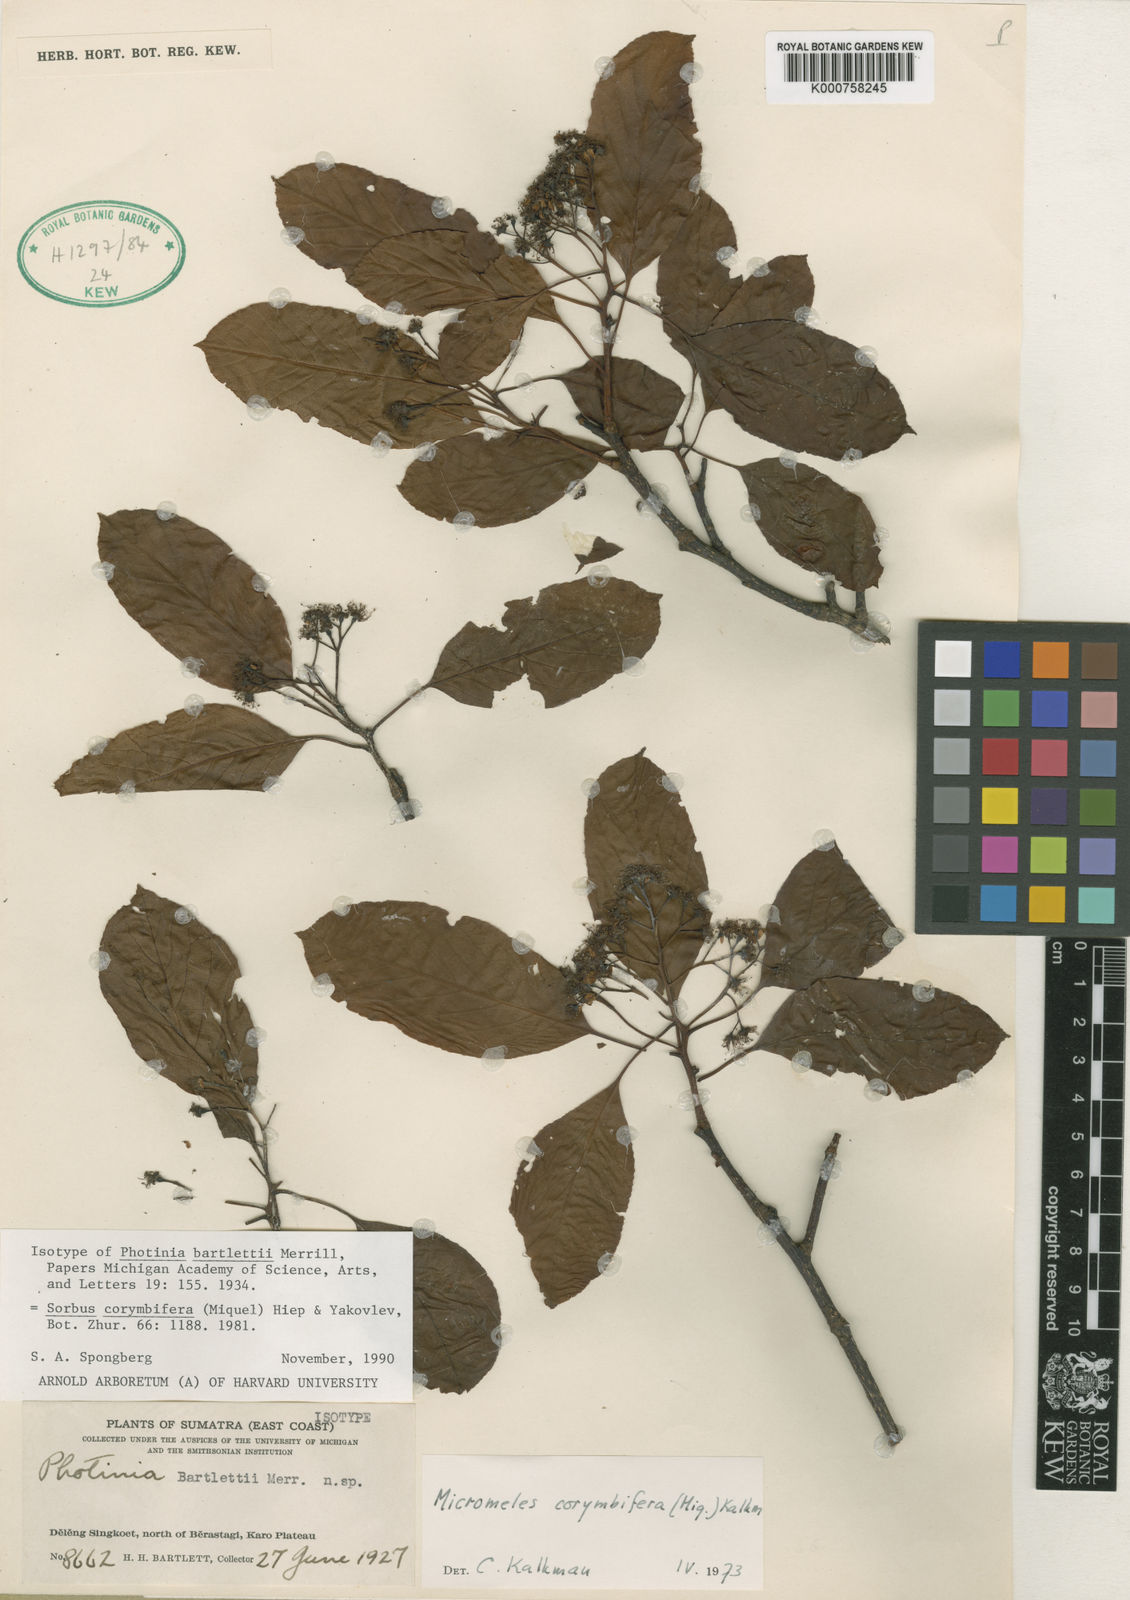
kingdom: Plantae
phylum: Tracheophyta
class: Magnoliopsida
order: Rosales
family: Rosaceae
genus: Sorbus
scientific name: Sorbus
